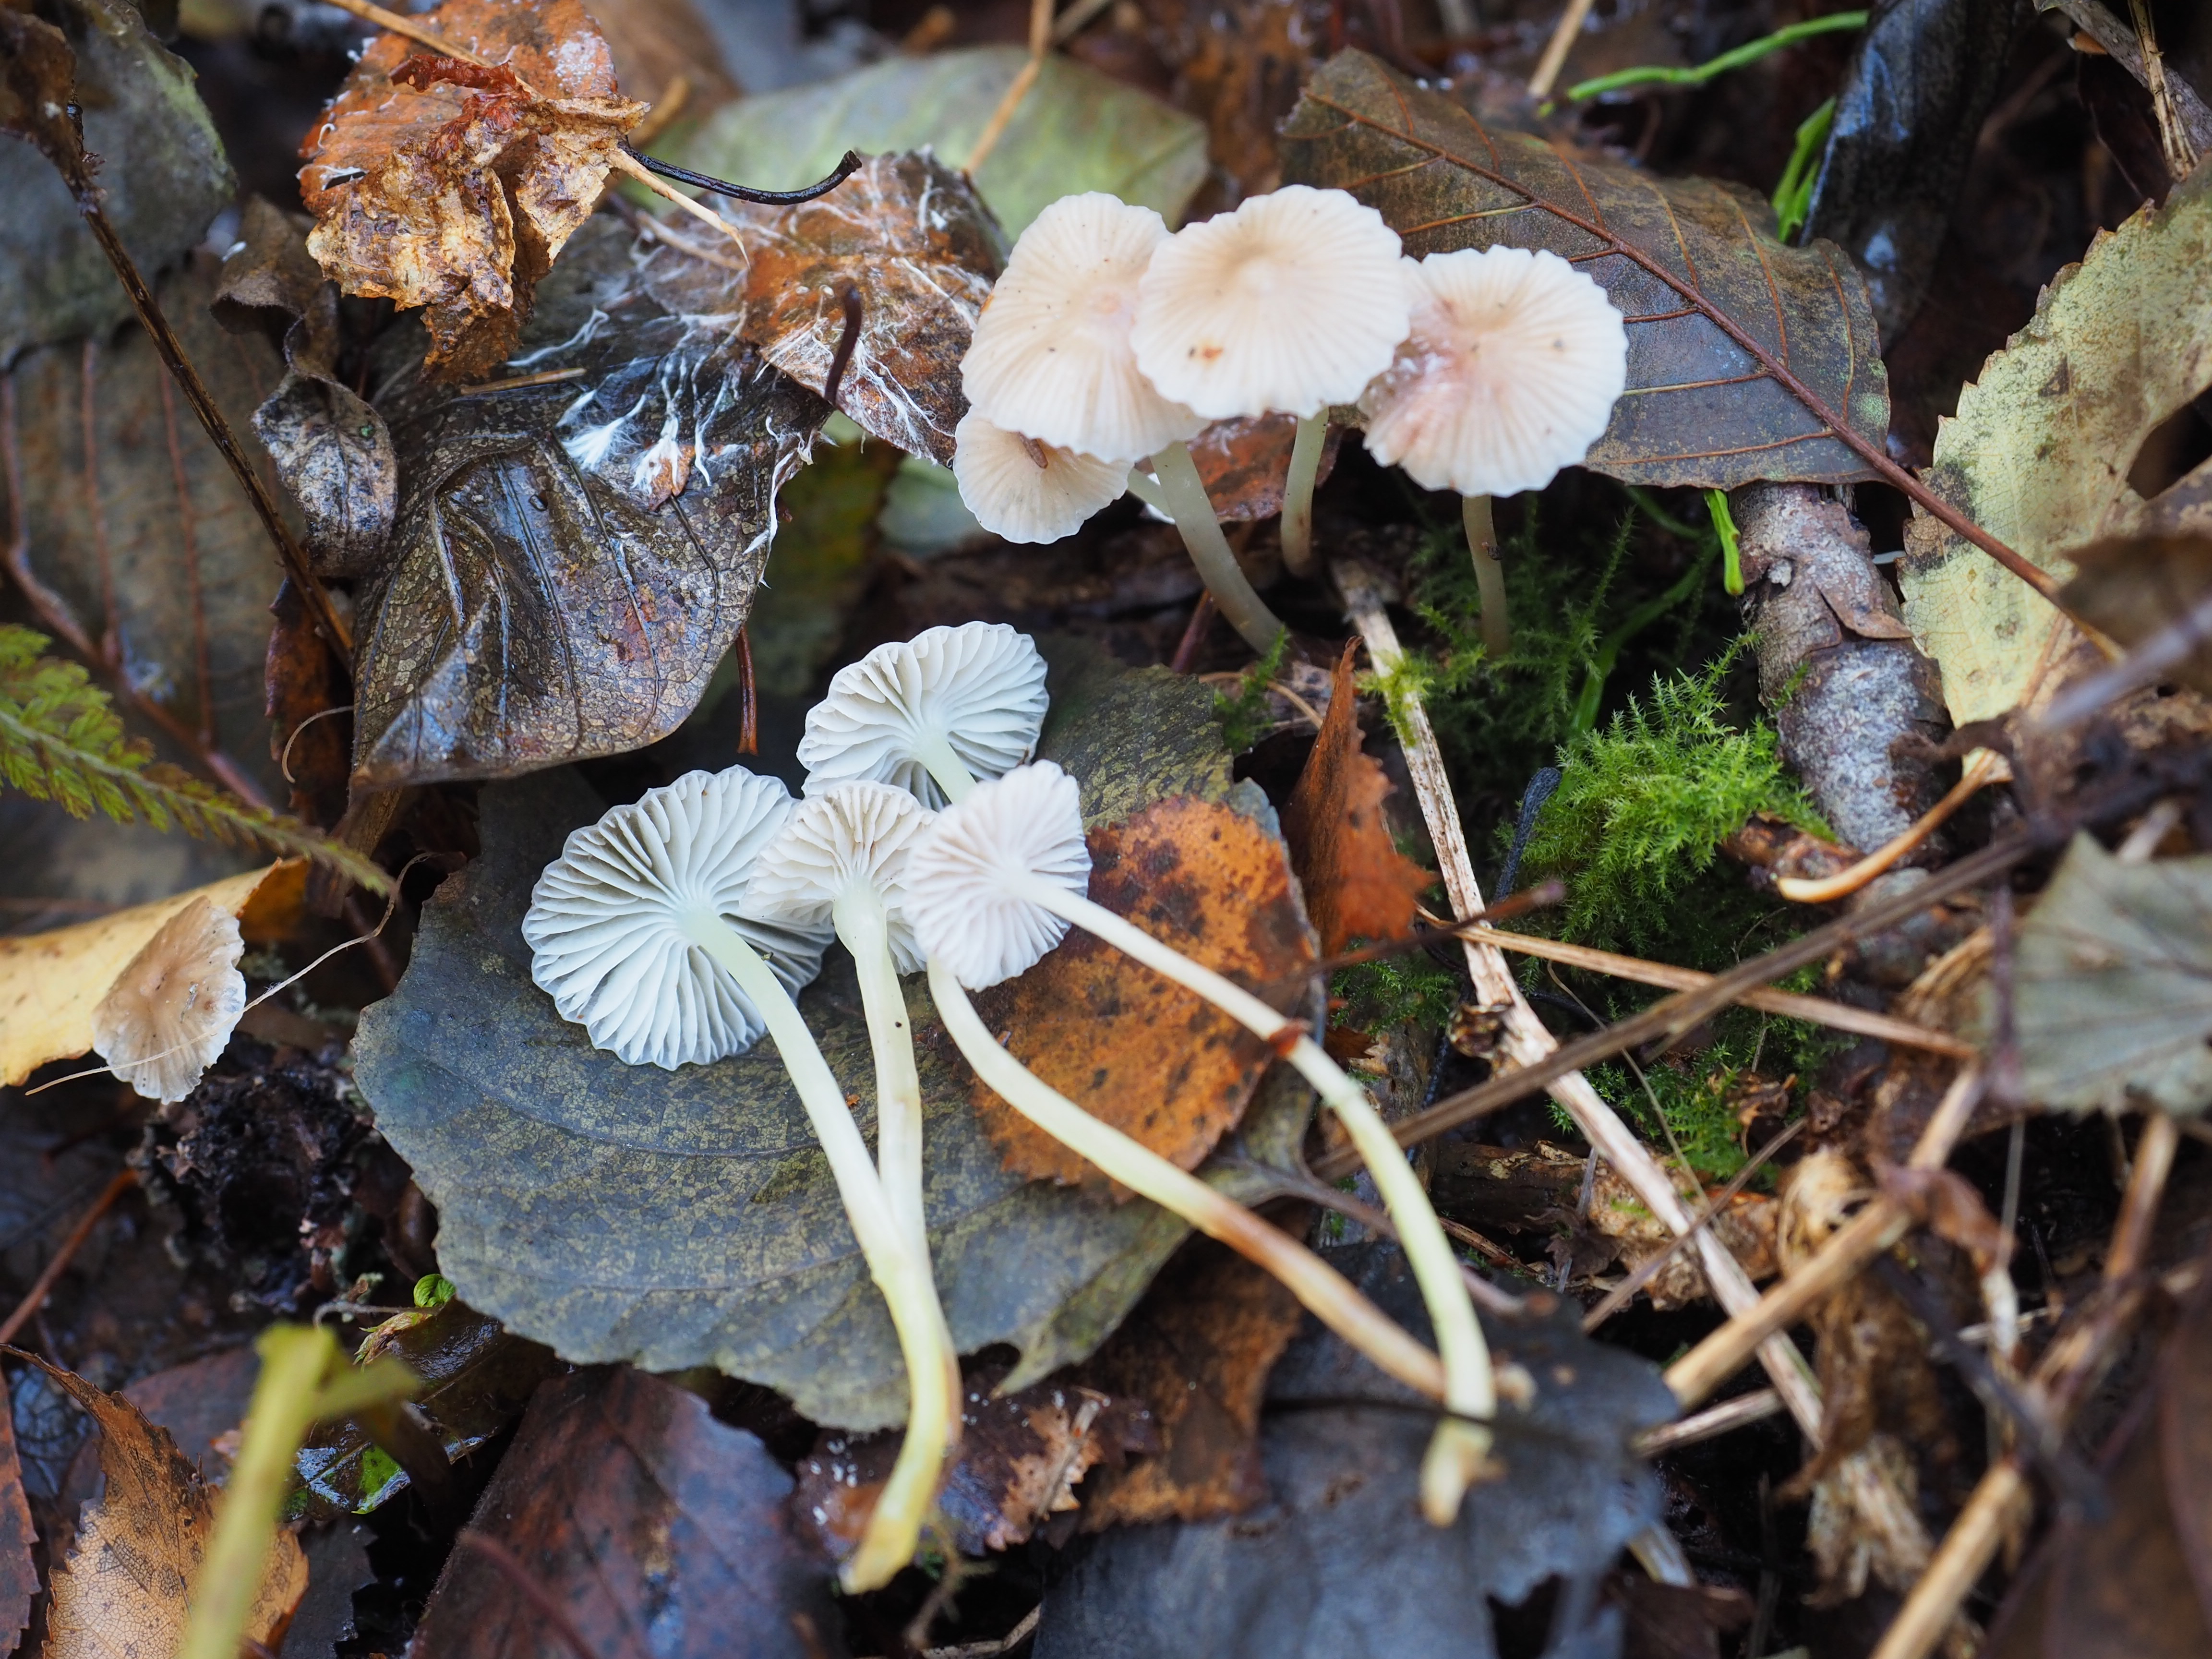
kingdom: Fungi
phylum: Basidiomycota
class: Agaricomycetes
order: Agaricales
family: Omphalotaceae
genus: Collybiopsis
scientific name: Collybiopsis ramealis
